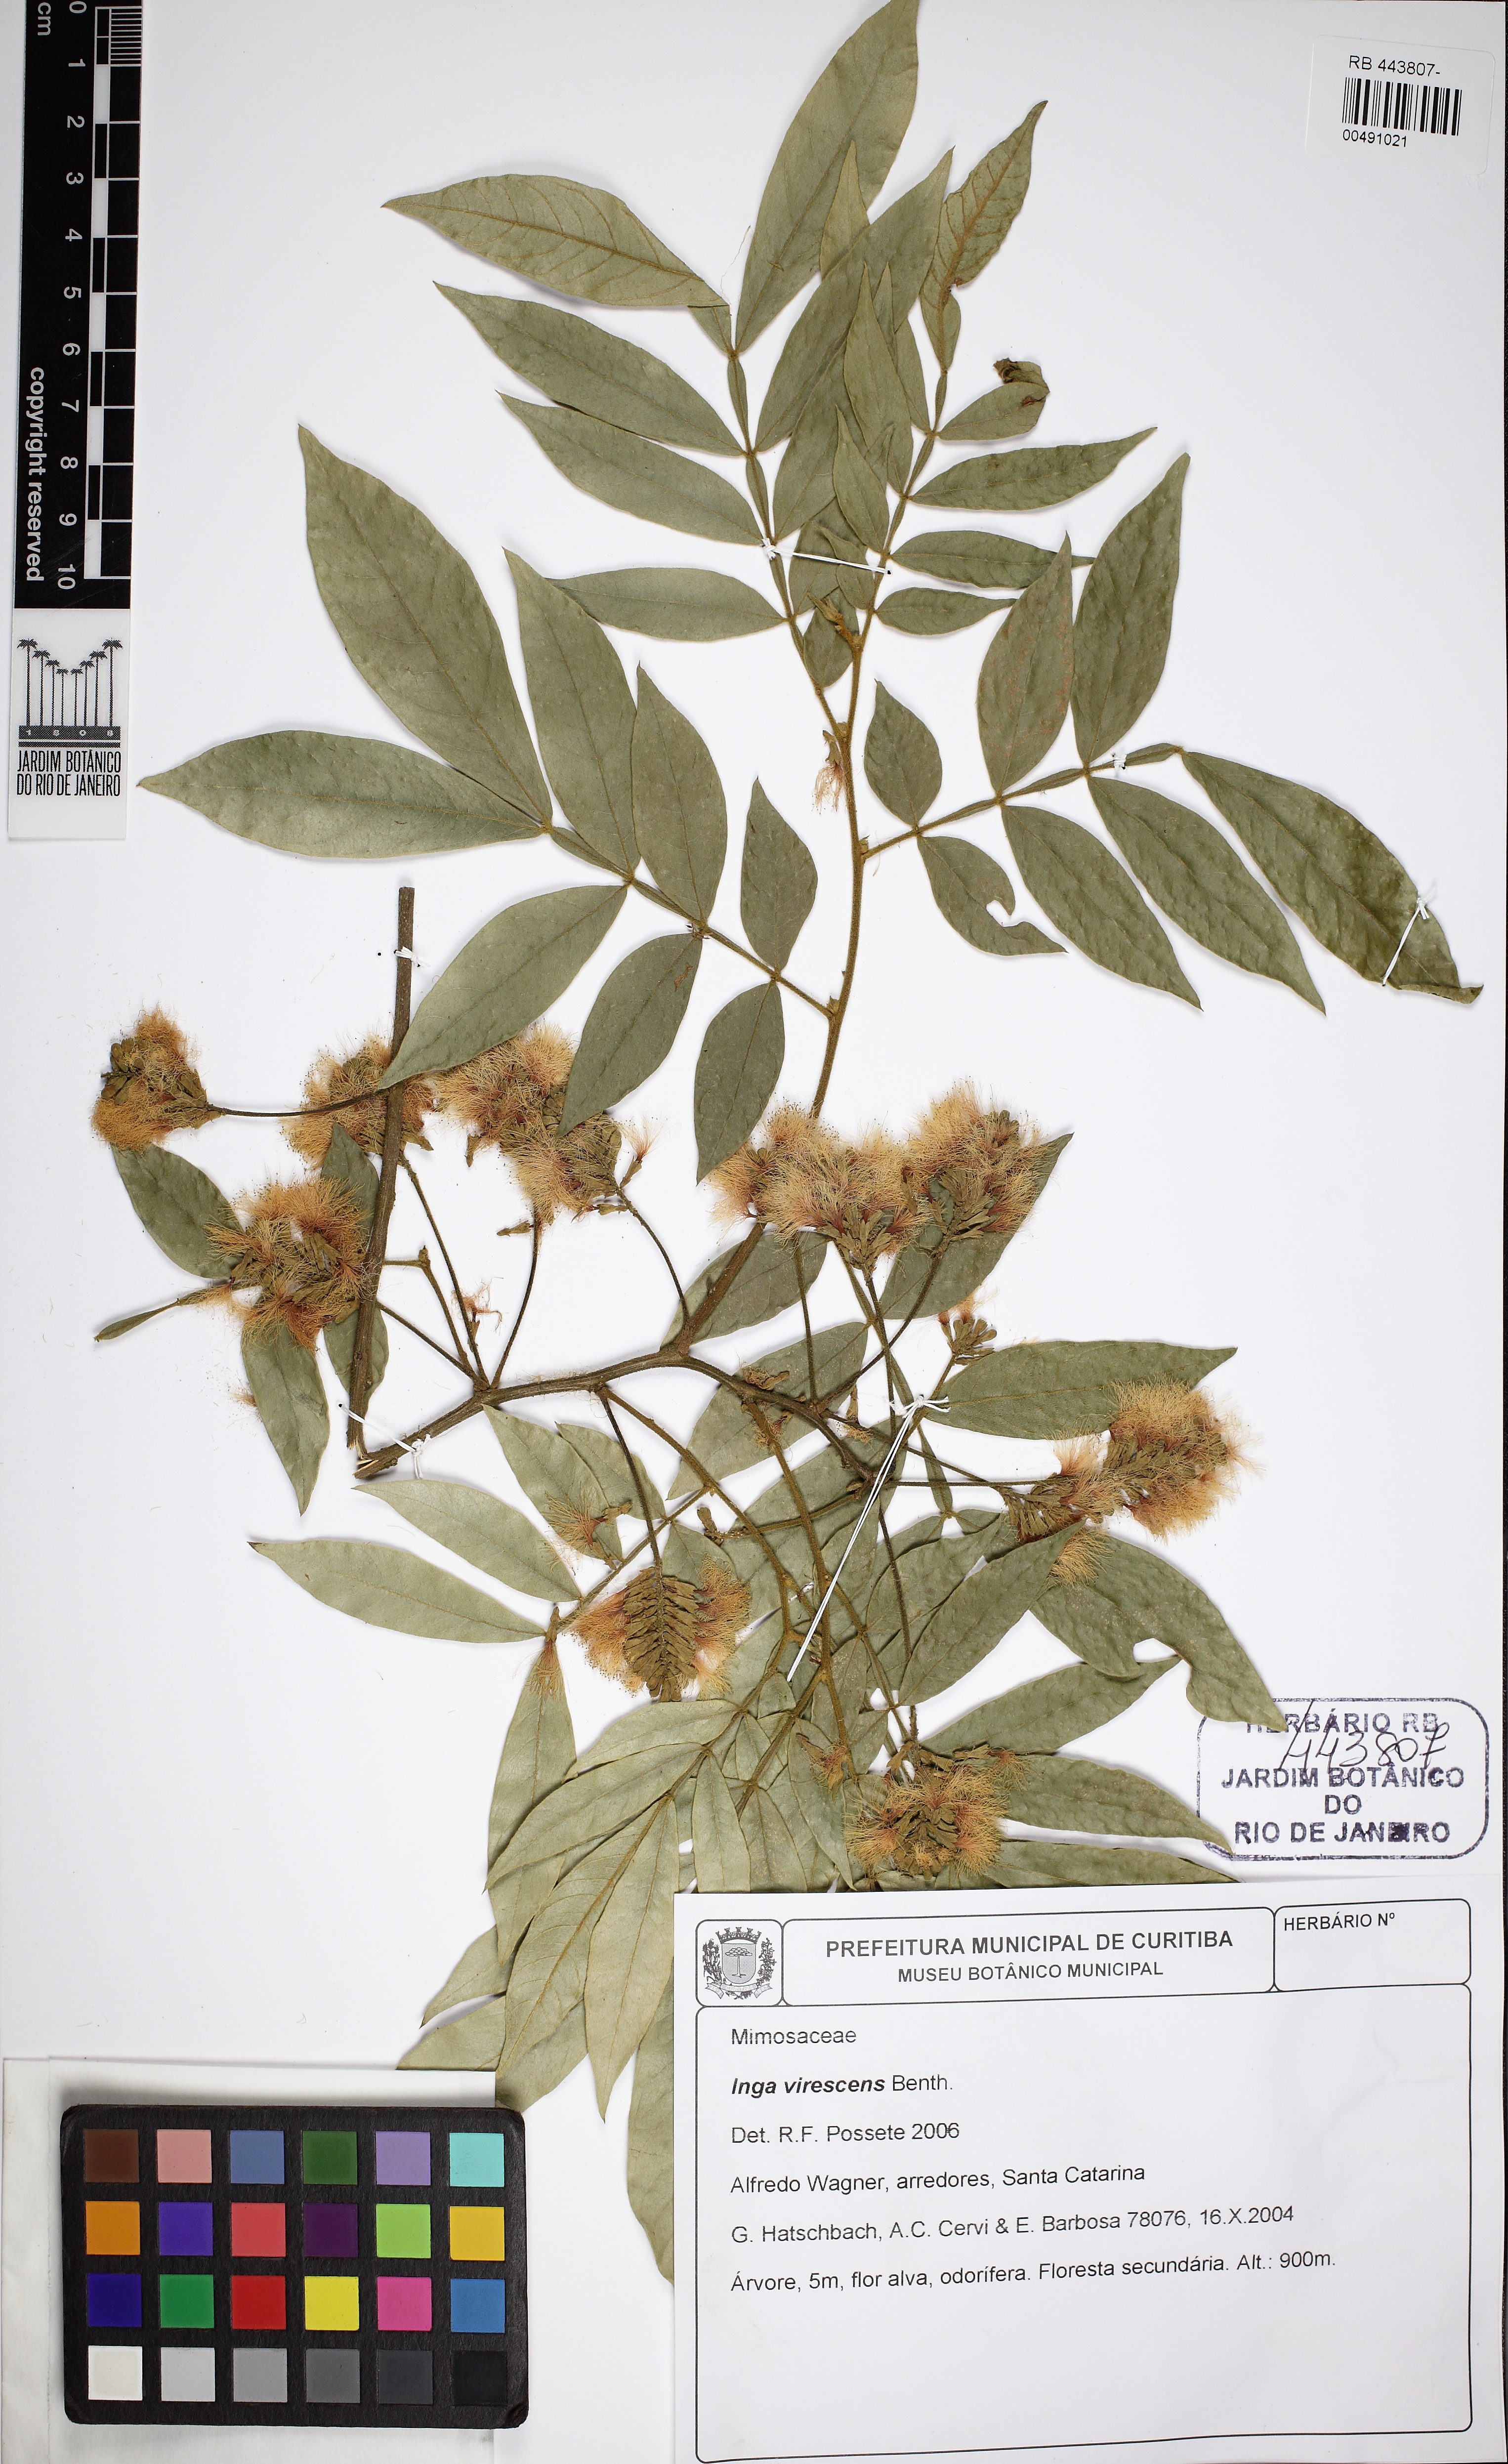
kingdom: Plantae
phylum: Tracheophyta
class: Magnoliopsida
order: Fabales
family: Fabaceae
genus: Inga
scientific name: Inga virescens
